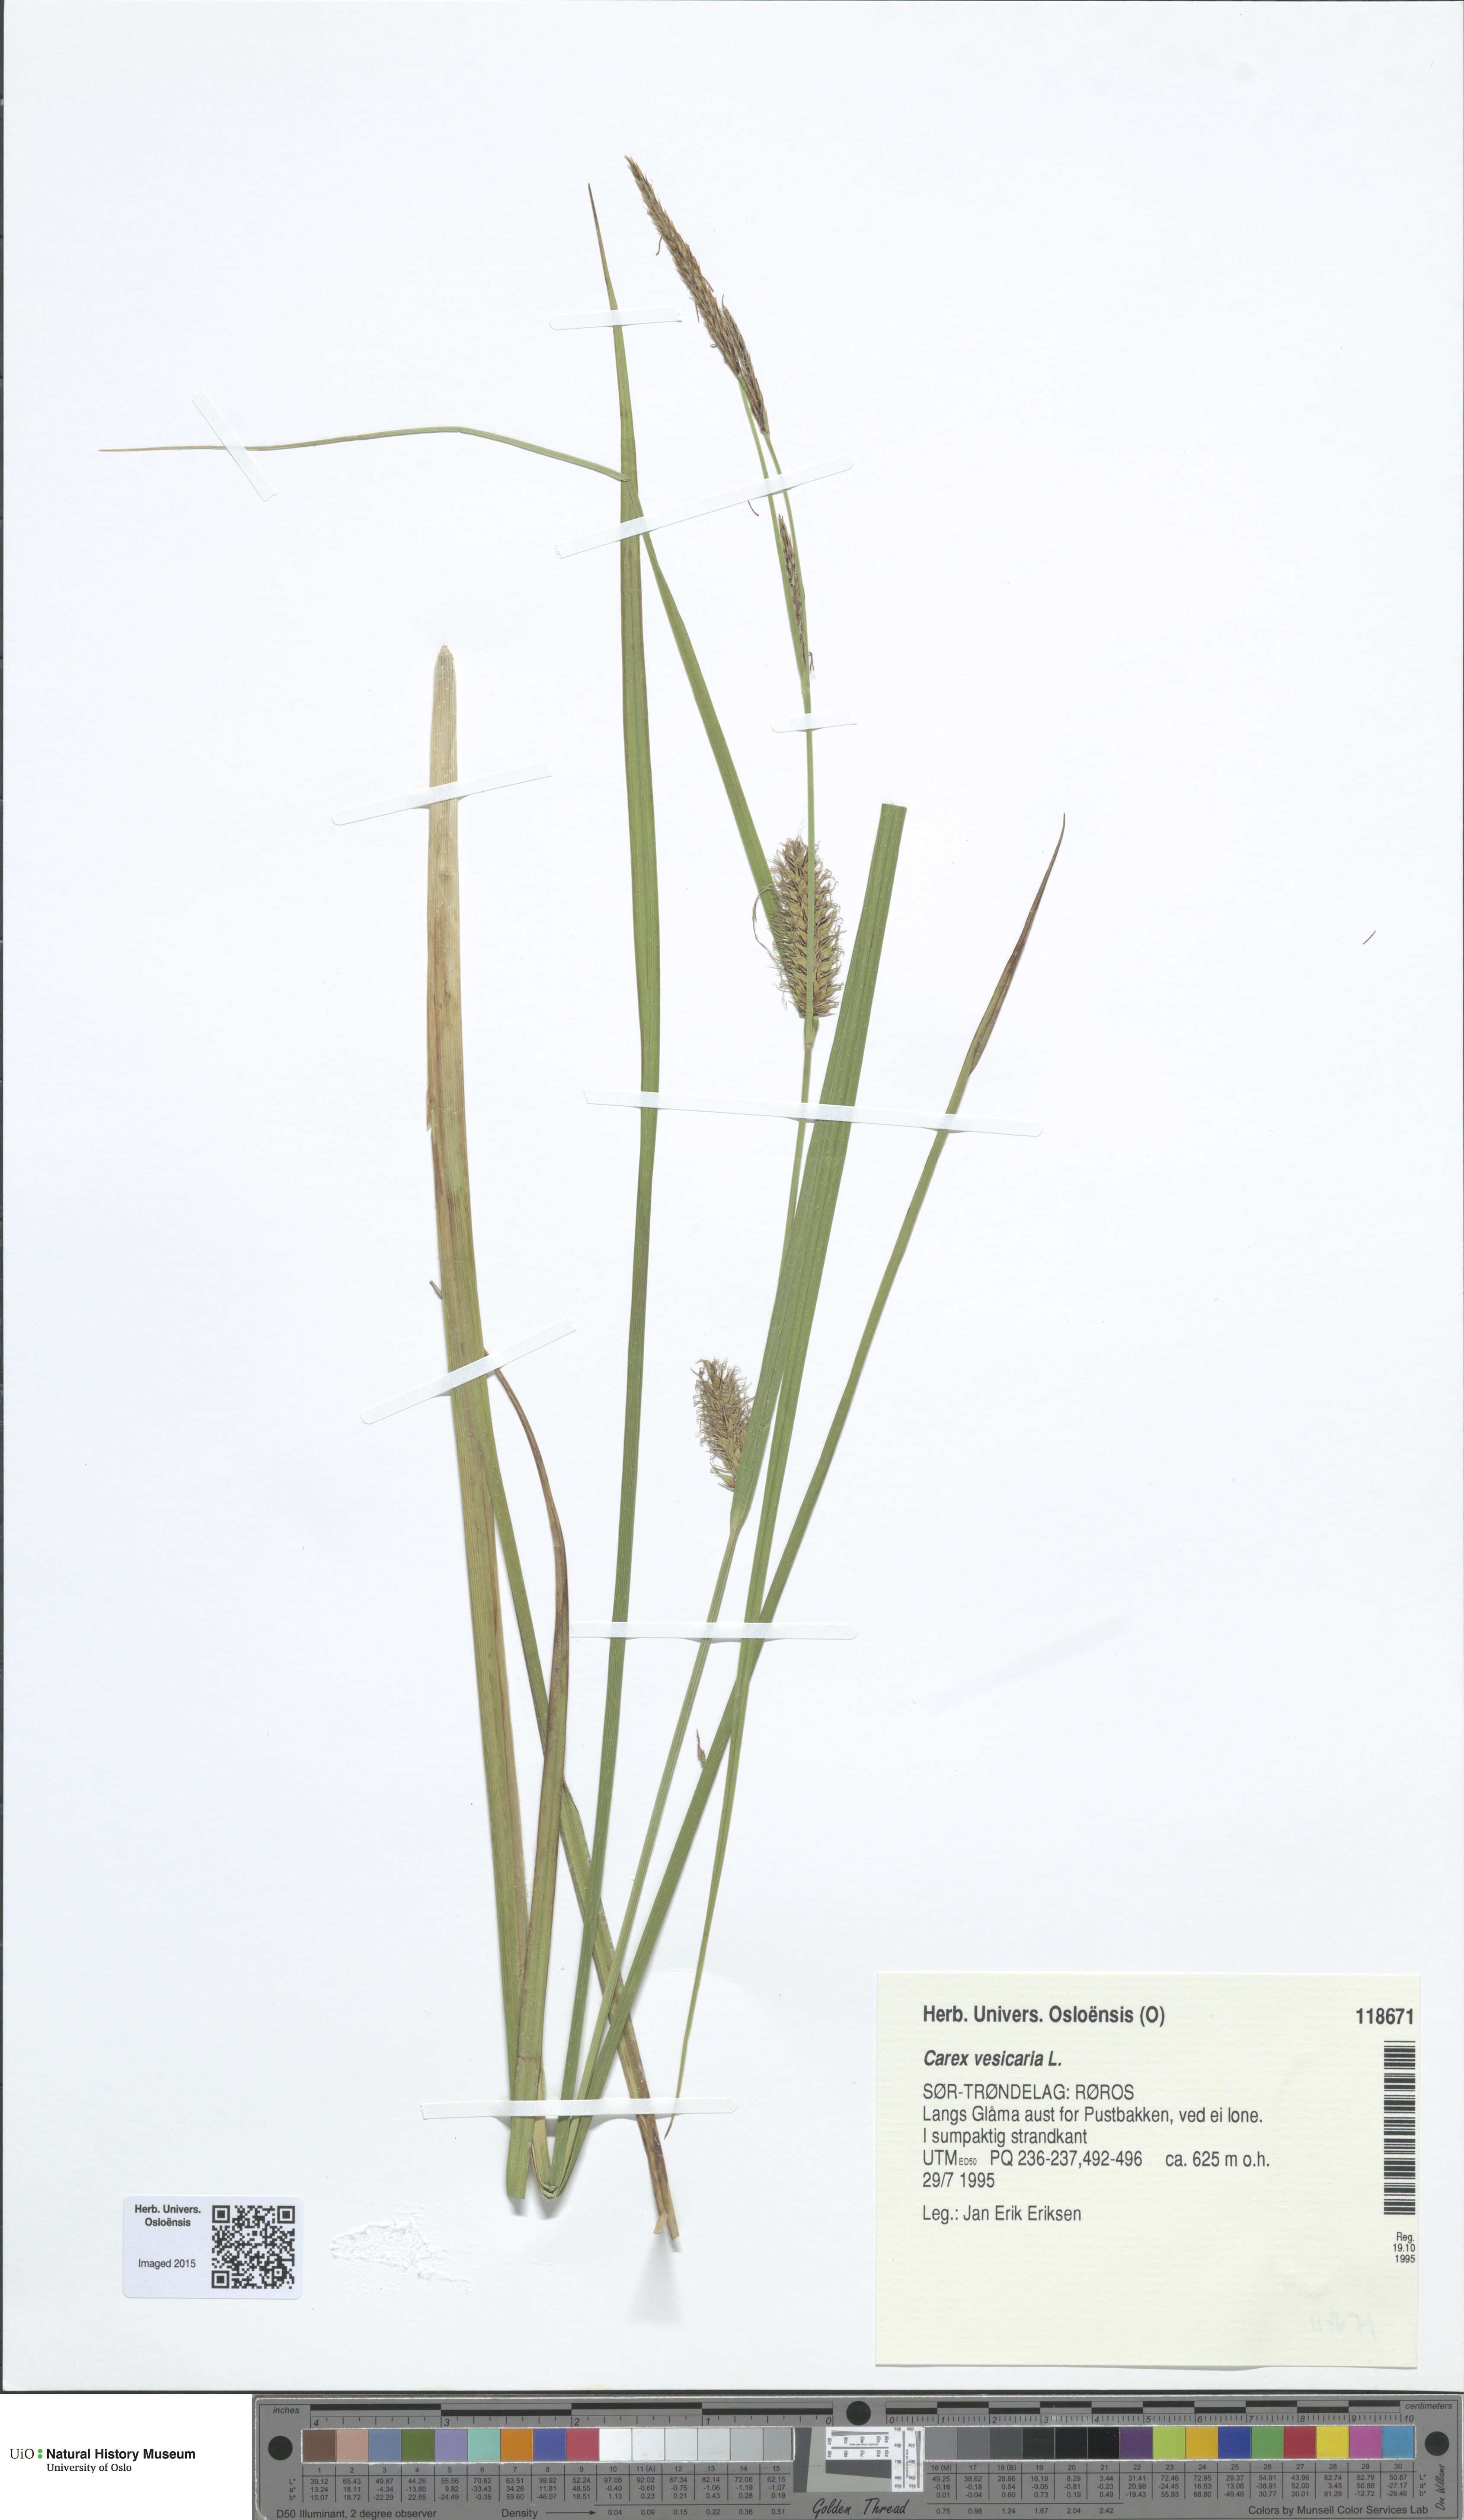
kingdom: Plantae
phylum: Tracheophyta
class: Liliopsida
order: Poales
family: Cyperaceae
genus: Carex
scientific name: Carex vesicaria
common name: Bladder-sedge
